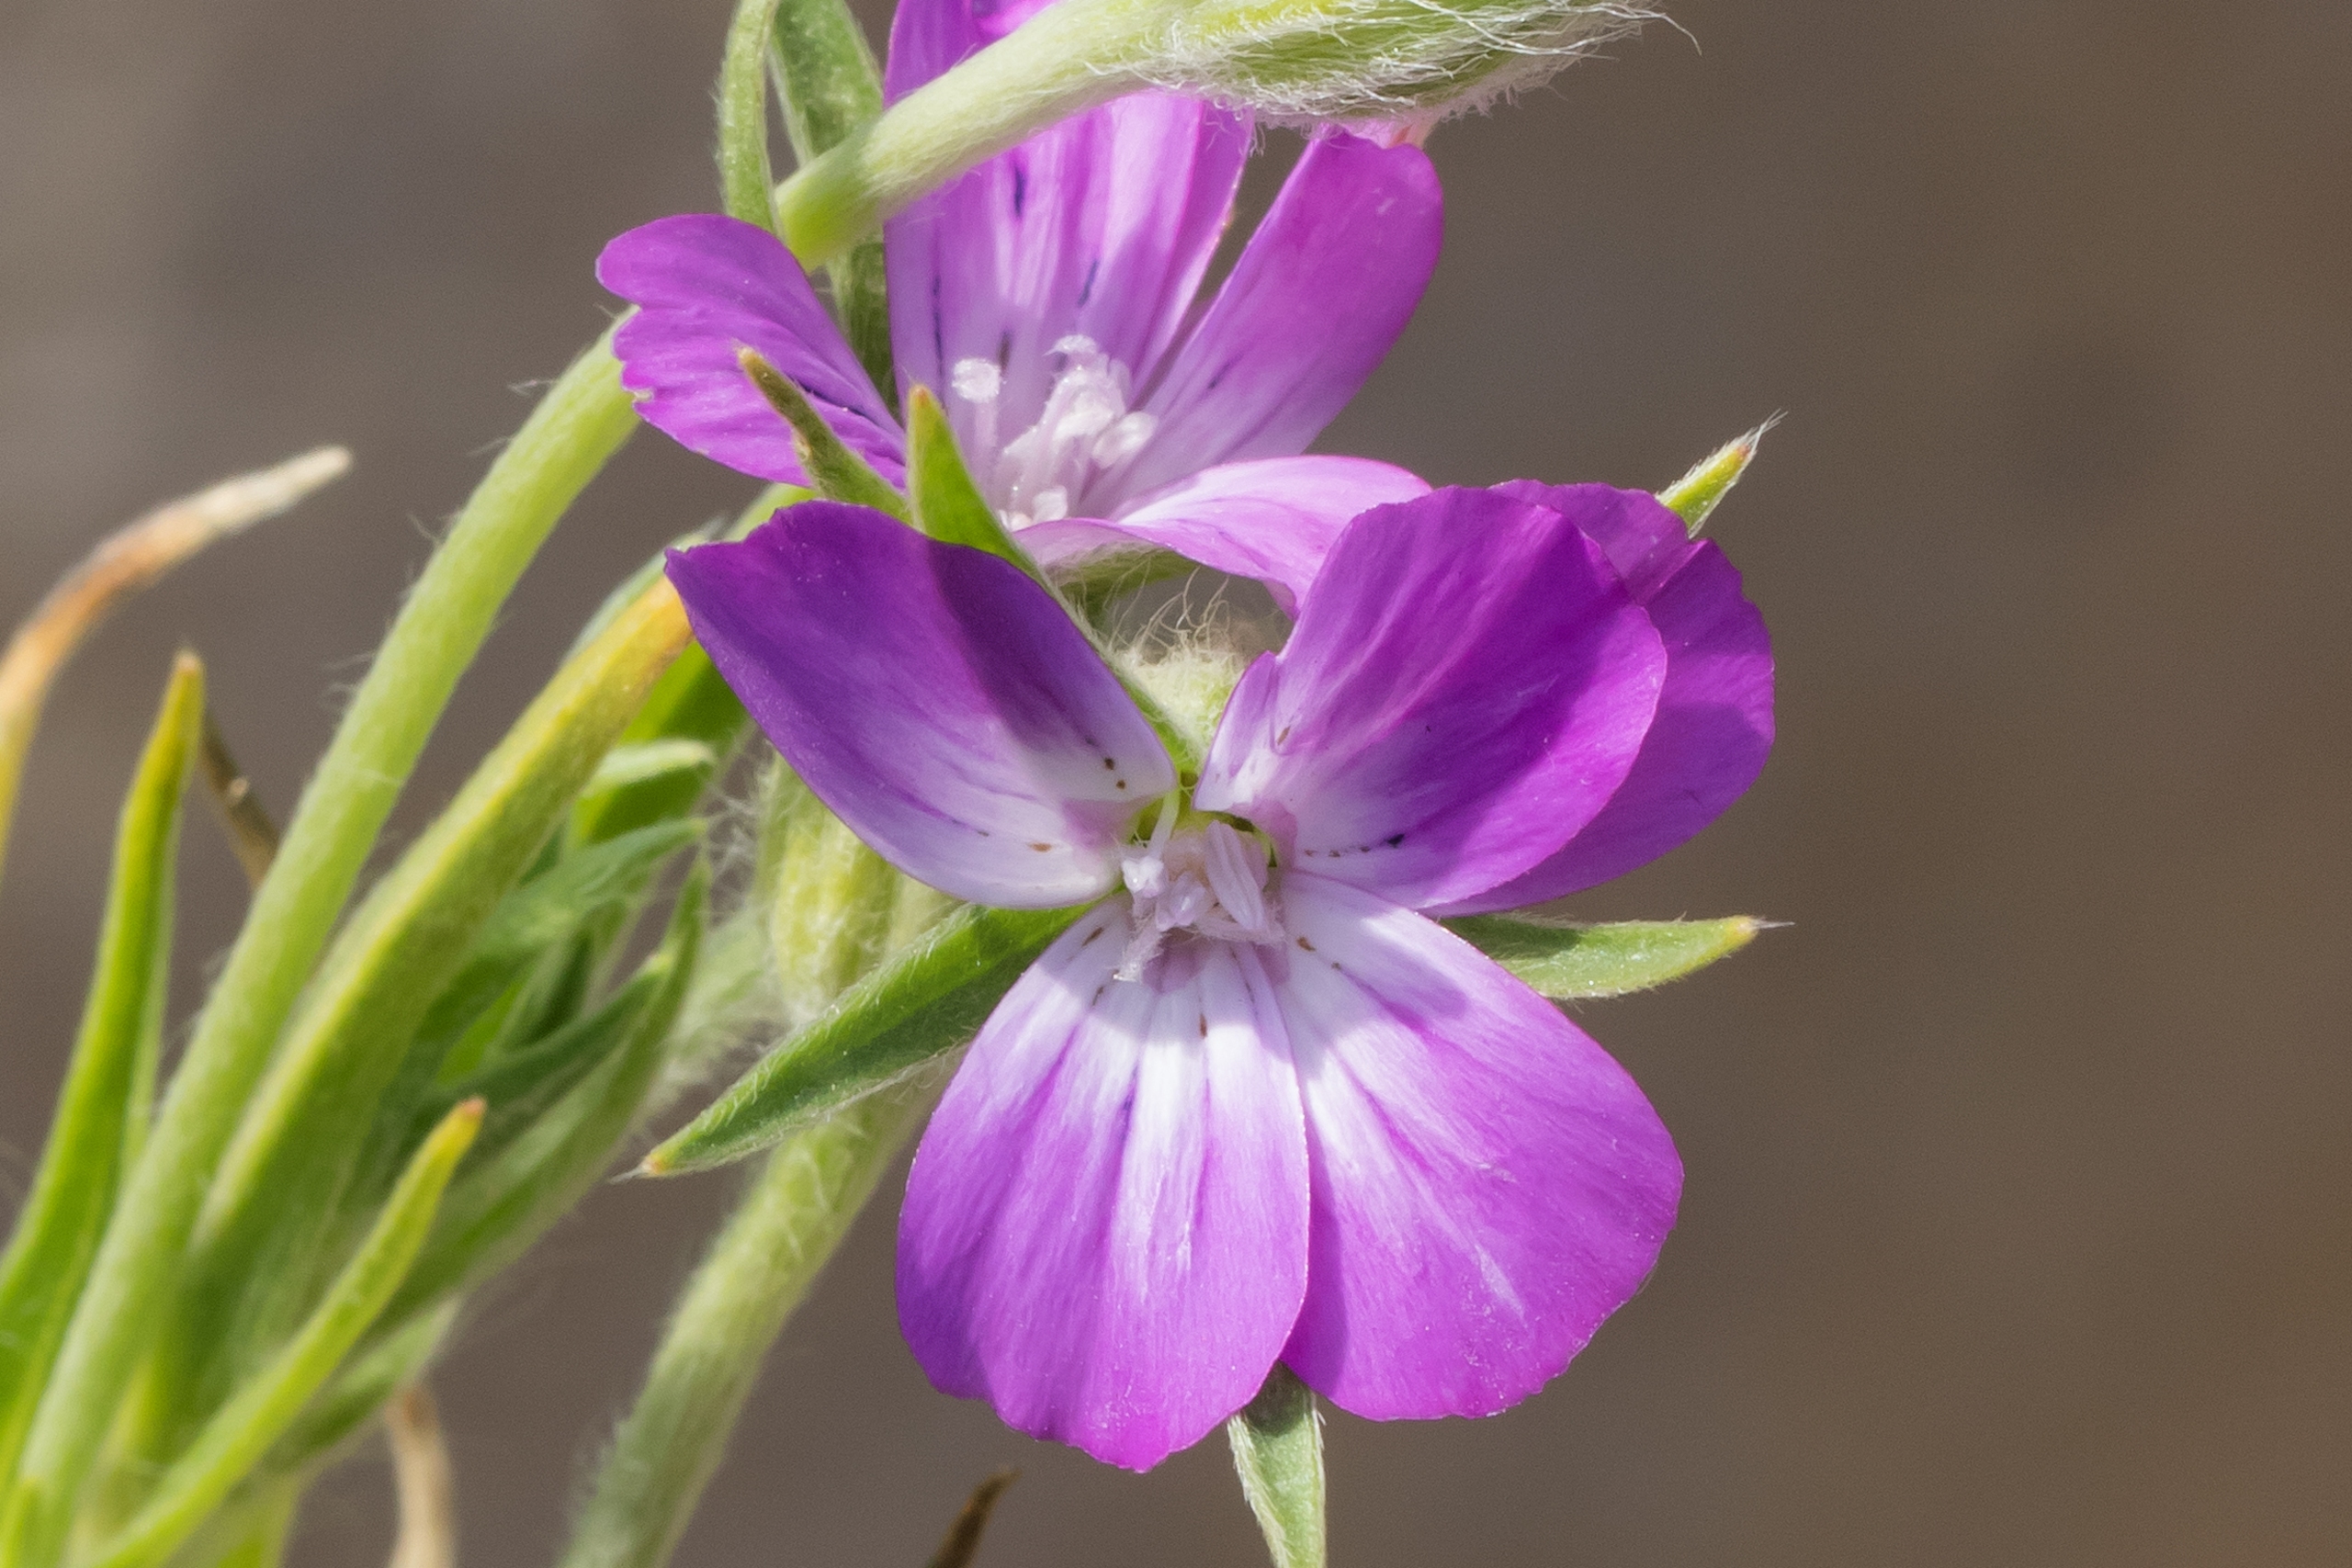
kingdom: Plantae
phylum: Tracheophyta
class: Magnoliopsida
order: Caryophyllales
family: Caryophyllaceae
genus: Agrostemma
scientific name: Agrostemma githago
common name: Klinte
